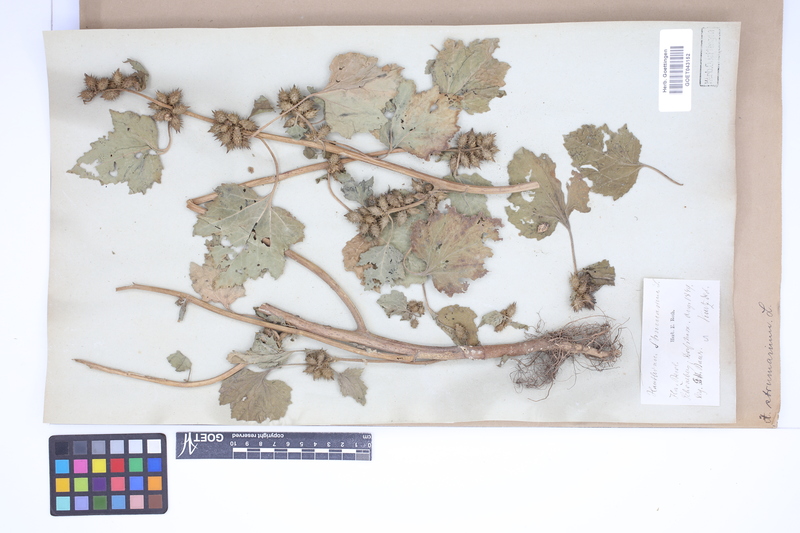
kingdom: Plantae
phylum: Tracheophyta
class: Magnoliopsida
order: Asterales
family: Asteraceae
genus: Xanthium
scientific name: Xanthium strumarium
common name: Rough cocklebur
